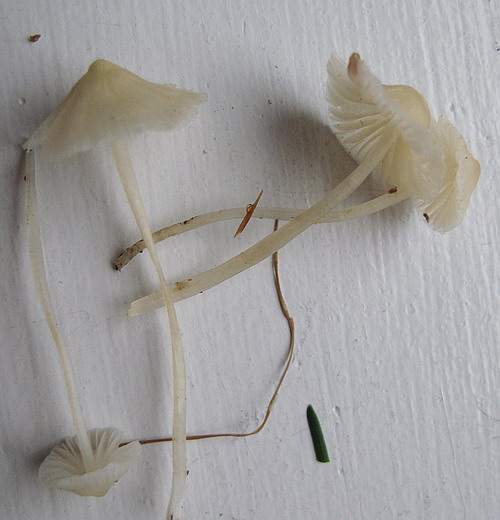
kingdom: Fungi
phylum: Basidiomycota
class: Agaricomycetes
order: Agaricales
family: Mycenaceae
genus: Atheniella
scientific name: Atheniella flavoalba
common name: gulhvid huesvamp
